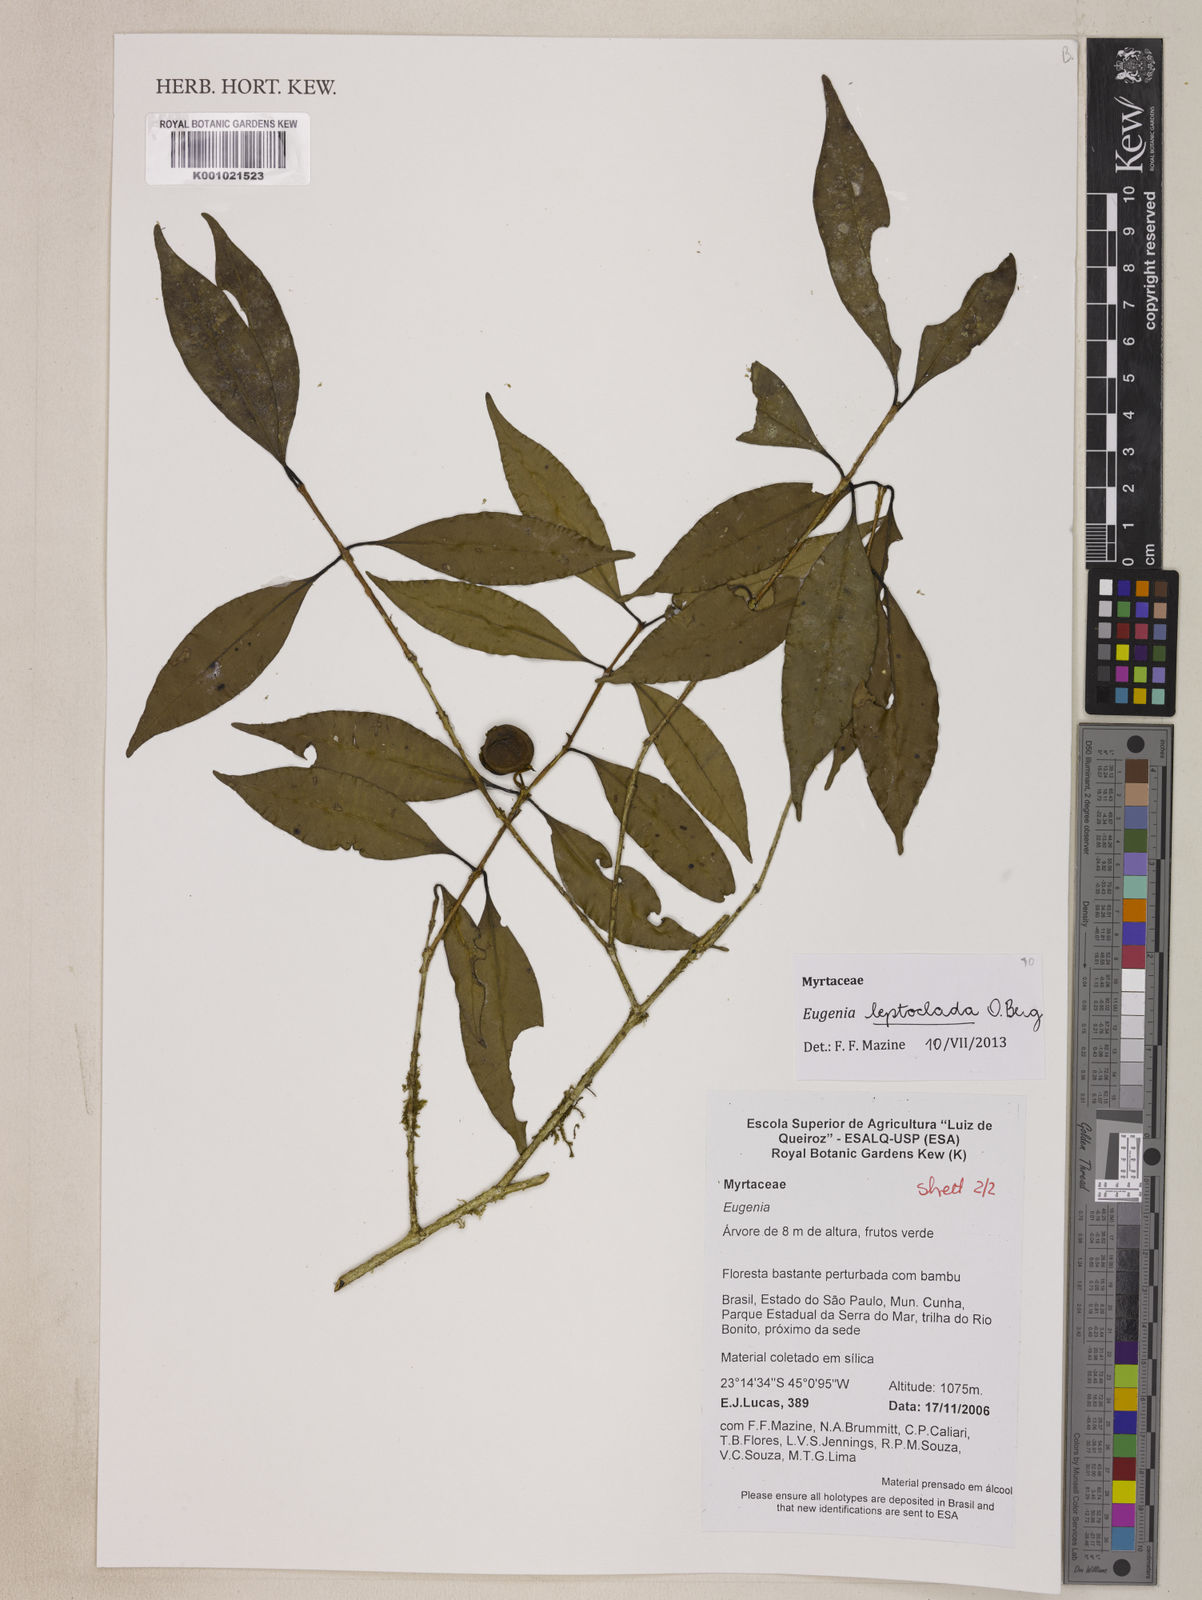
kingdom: Plantae
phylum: Tracheophyta
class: Magnoliopsida
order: Myrtales
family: Myrtaceae
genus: Eugenia
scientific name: Eugenia leptoclada
